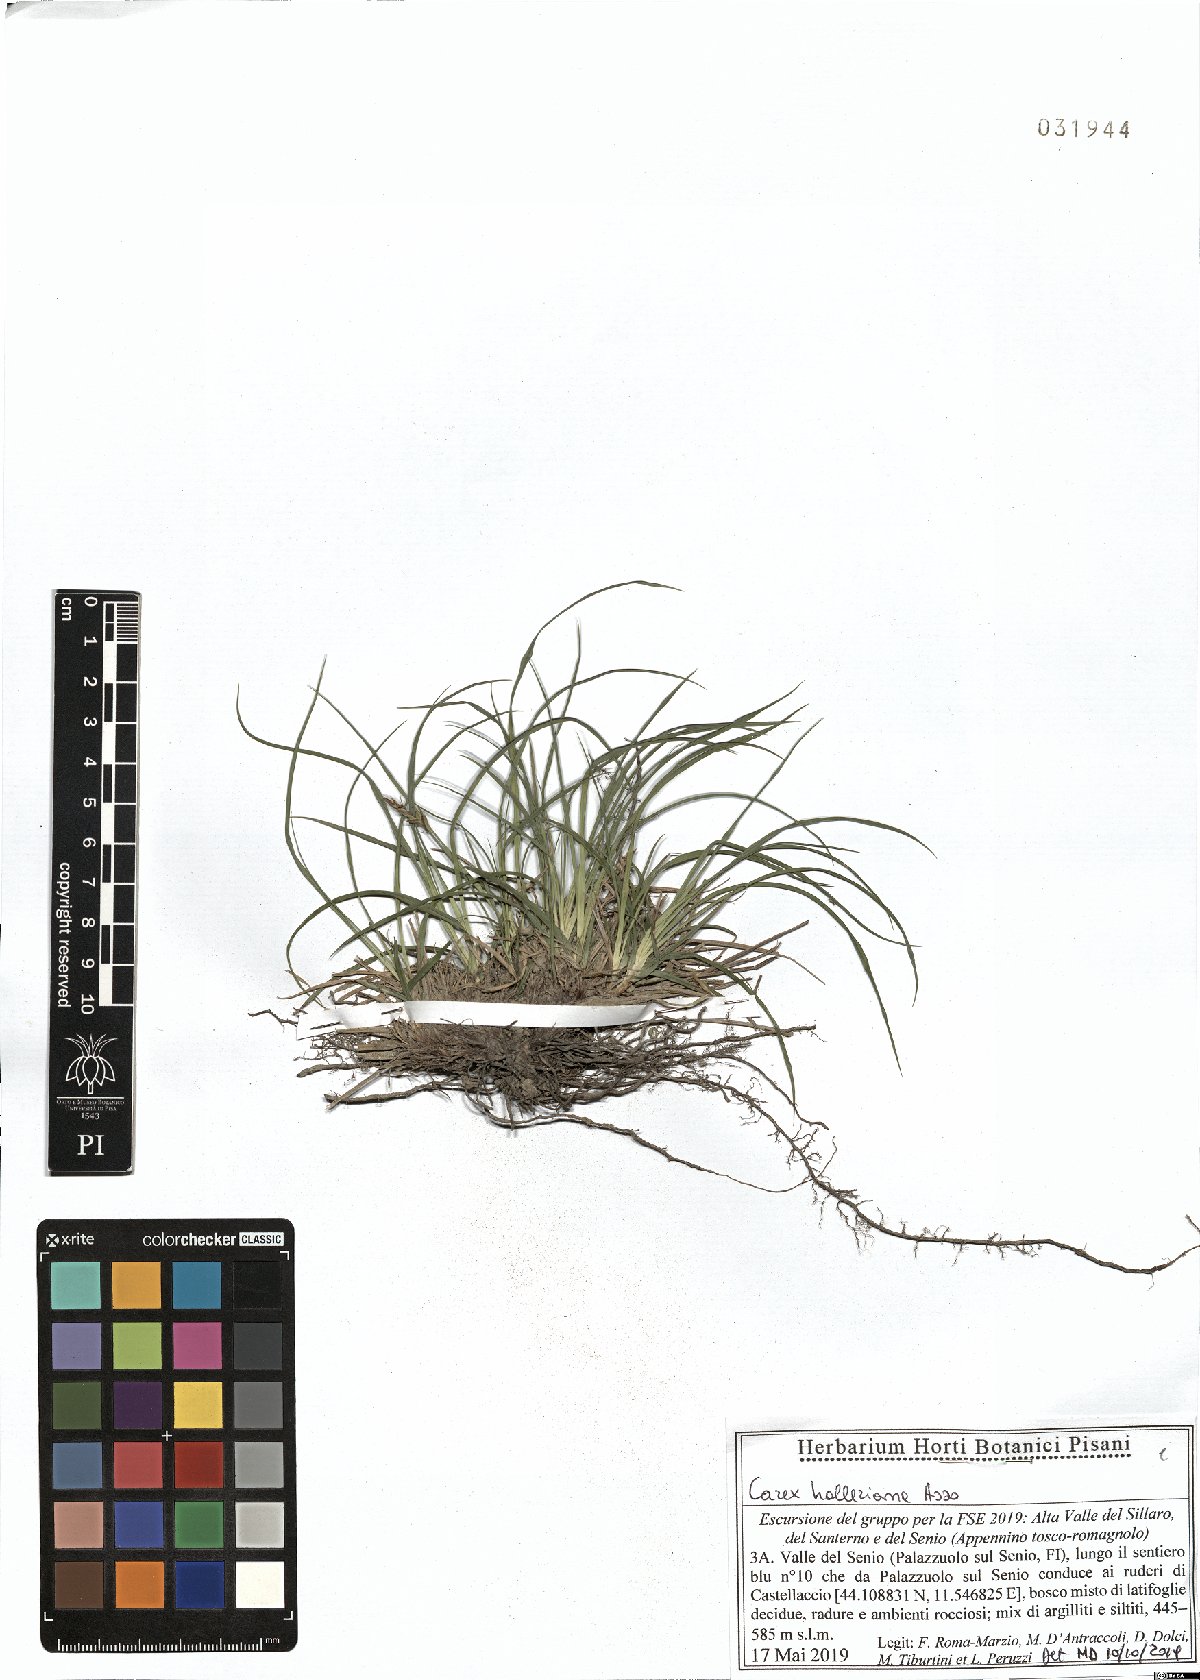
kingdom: Plantae
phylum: Tracheophyta
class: Liliopsida
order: Poales
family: Cyperaceae
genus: Carex
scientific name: Carex halleriana
